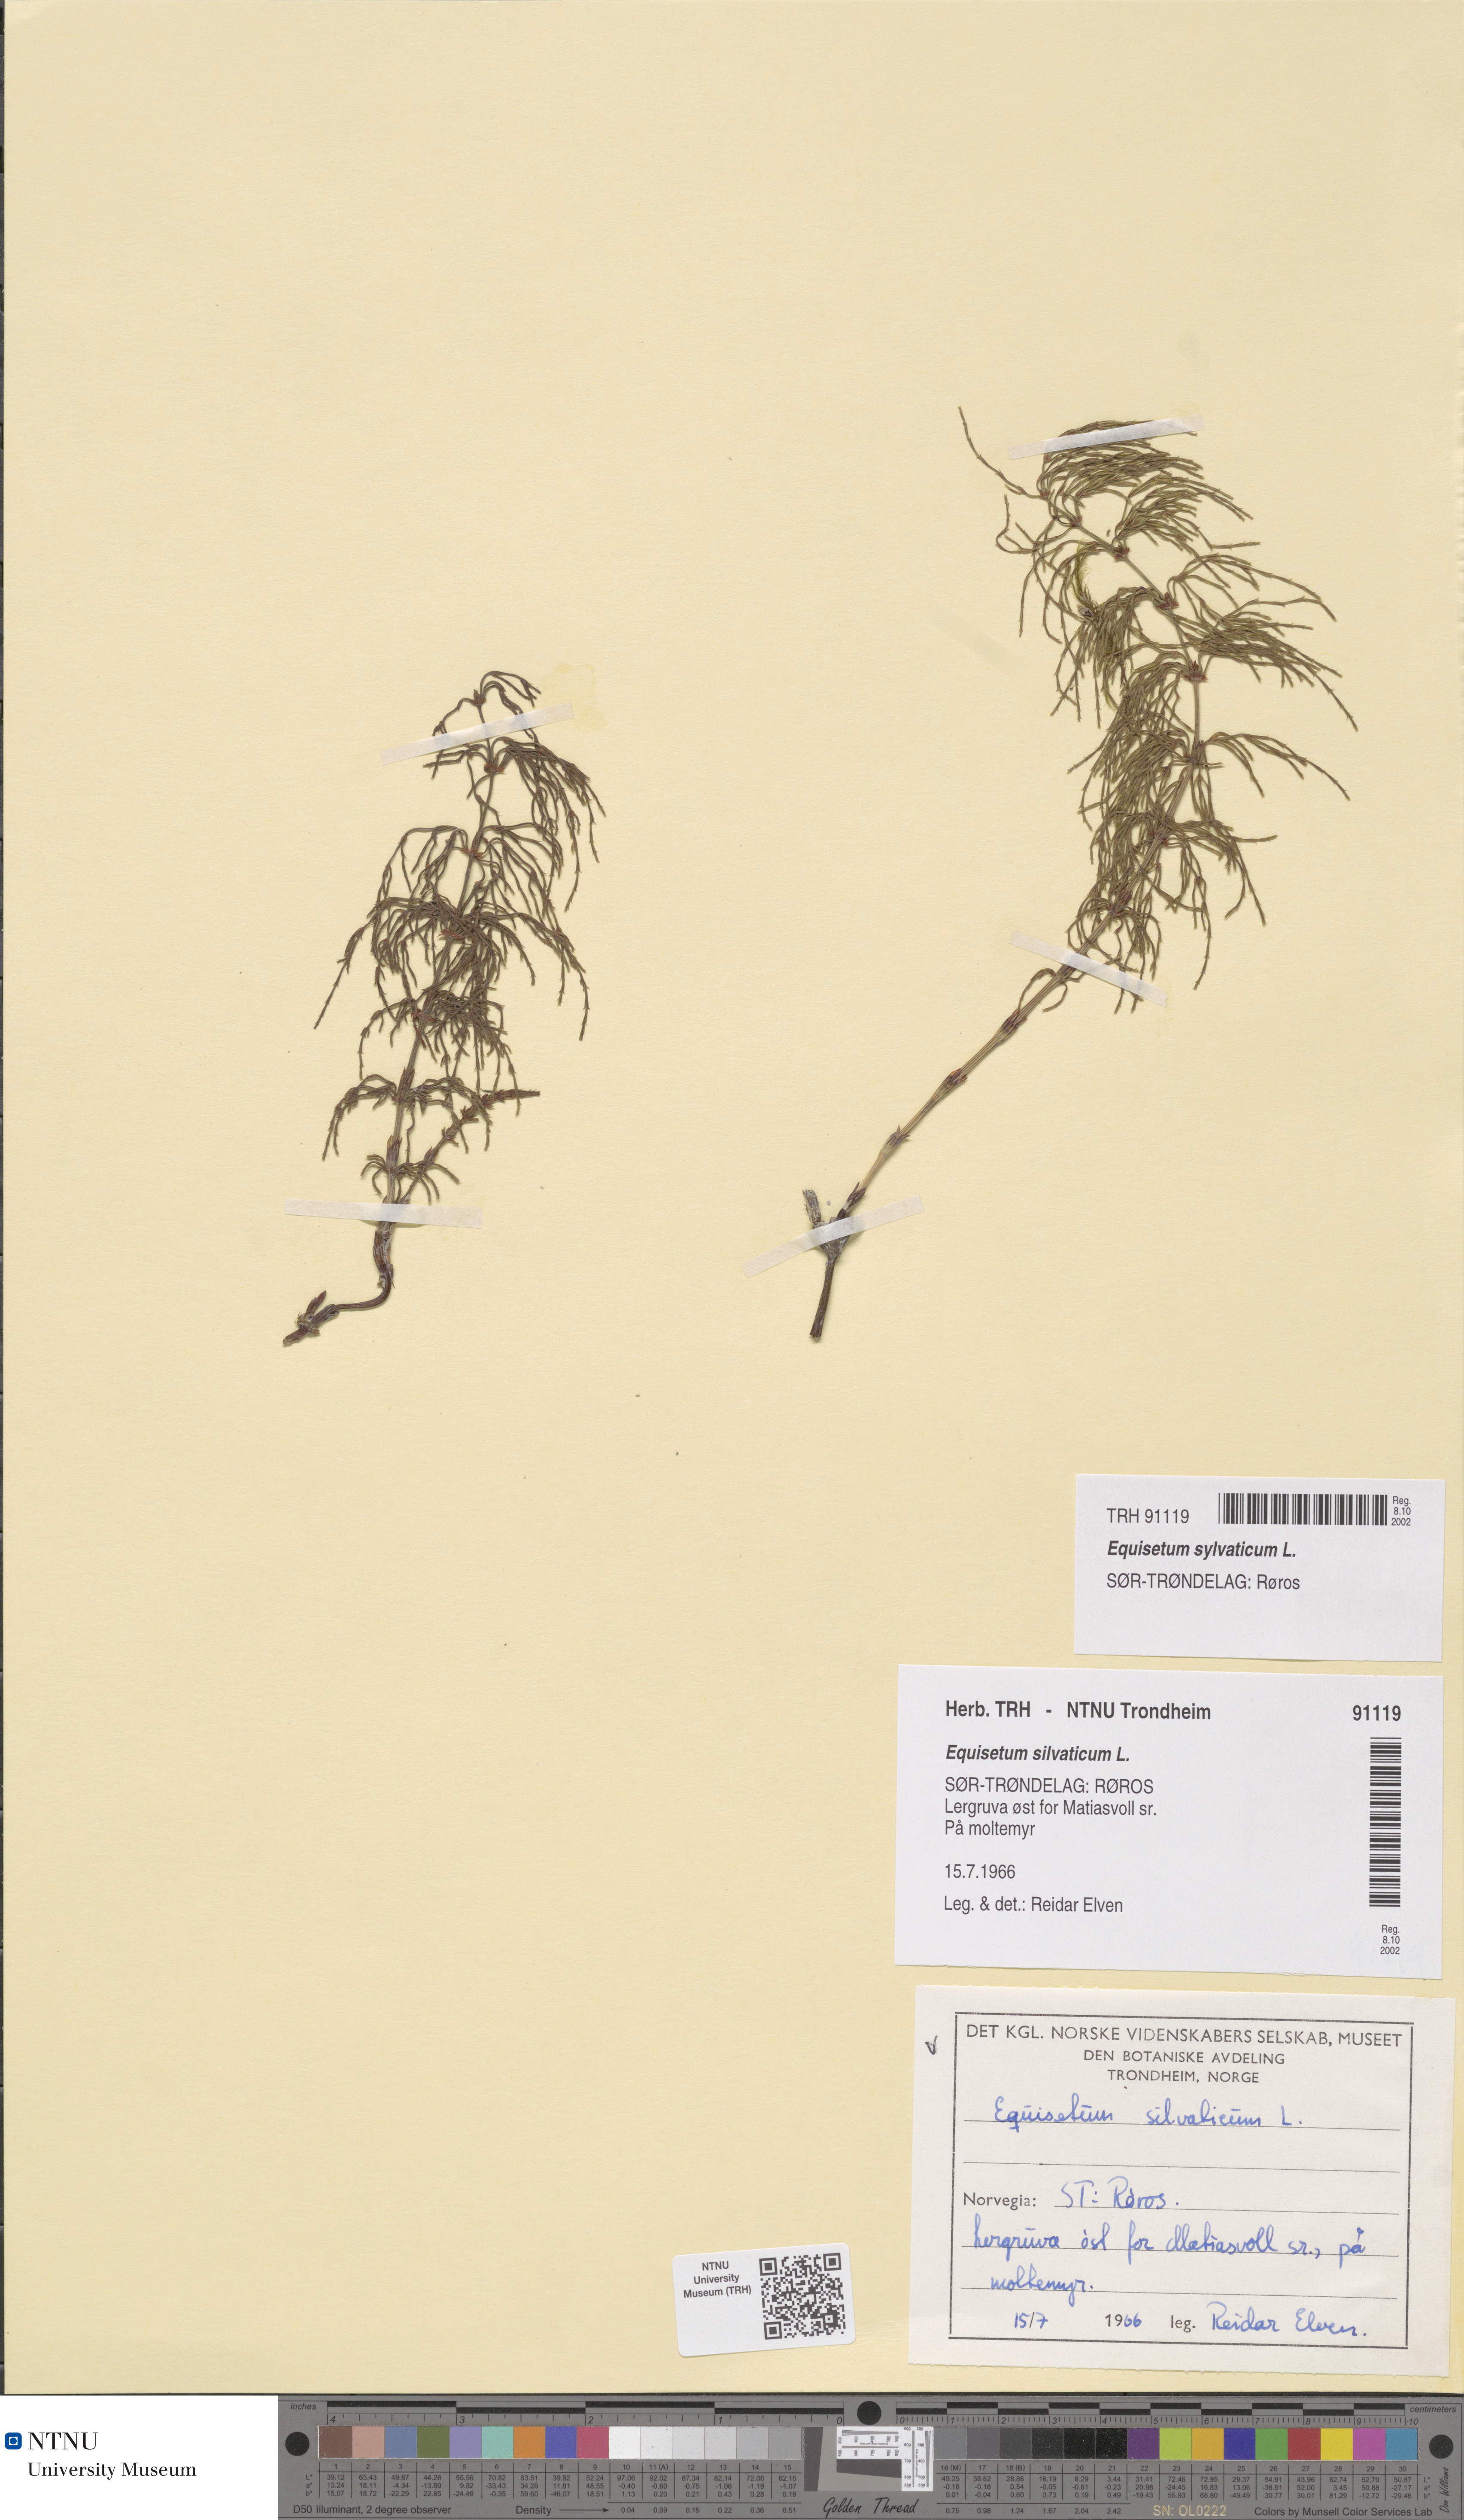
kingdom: Plantae
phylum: Tracheophyta
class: Polypodiopsida
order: Equisetales
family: Equisetaceae
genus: Equisetum
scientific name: Equisetum sylvaticum
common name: Wood horsetail
